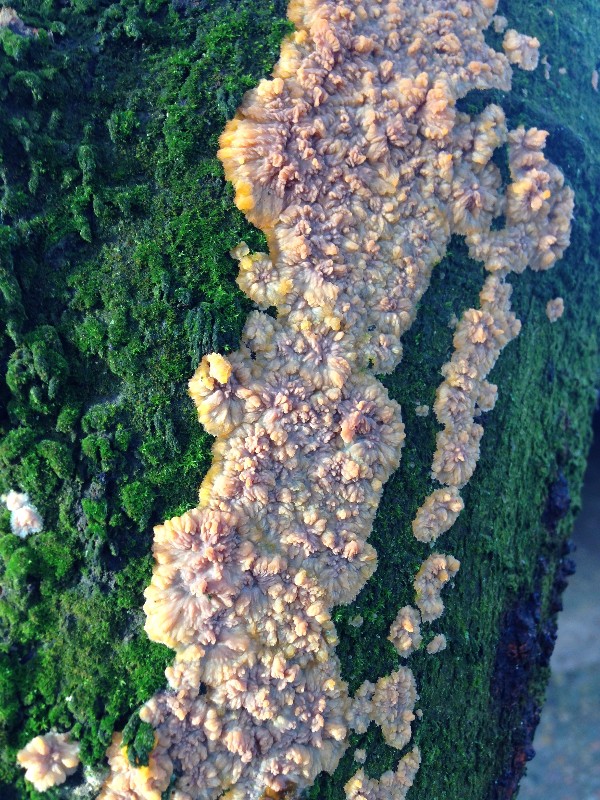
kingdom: Fungi
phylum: Basidiomycota
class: Agaricomycetes
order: Polyporales
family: Meruliaceae
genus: Phlebia
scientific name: Phlebia radiata
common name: stråle-åresvamp
